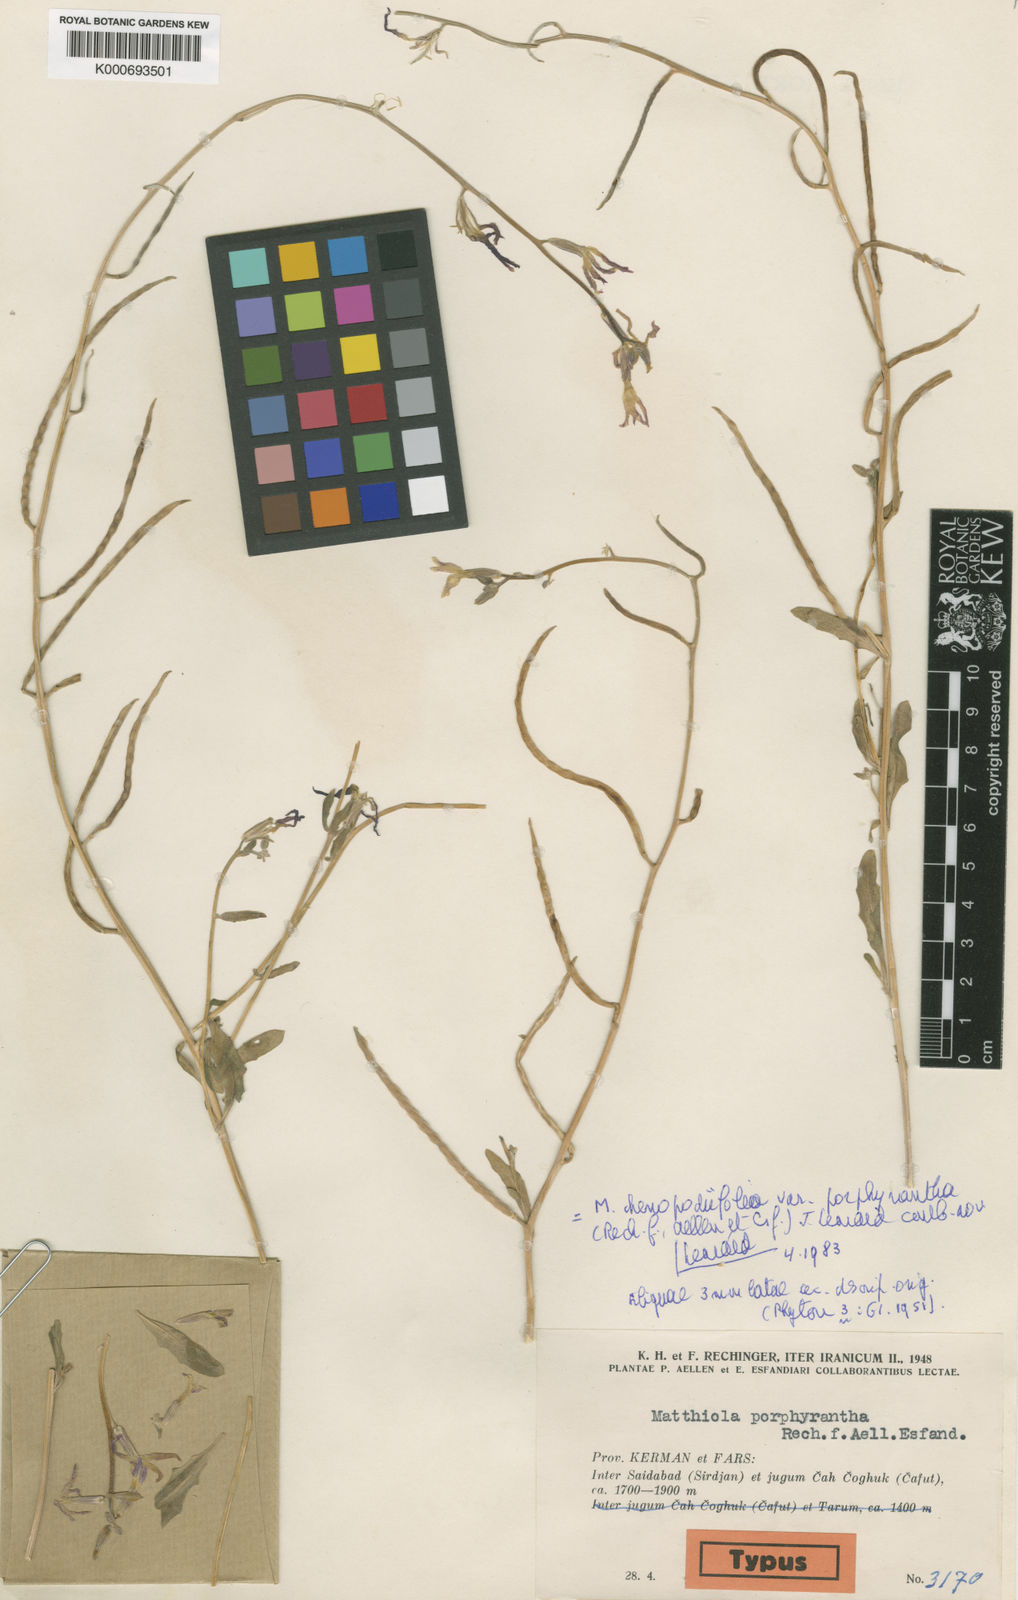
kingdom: Plantae
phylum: Tracheophyta
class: Magnoliopsida
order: Brassicales
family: Brassicaceae
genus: Matthiola
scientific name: Matthiola chenopodiifolia
